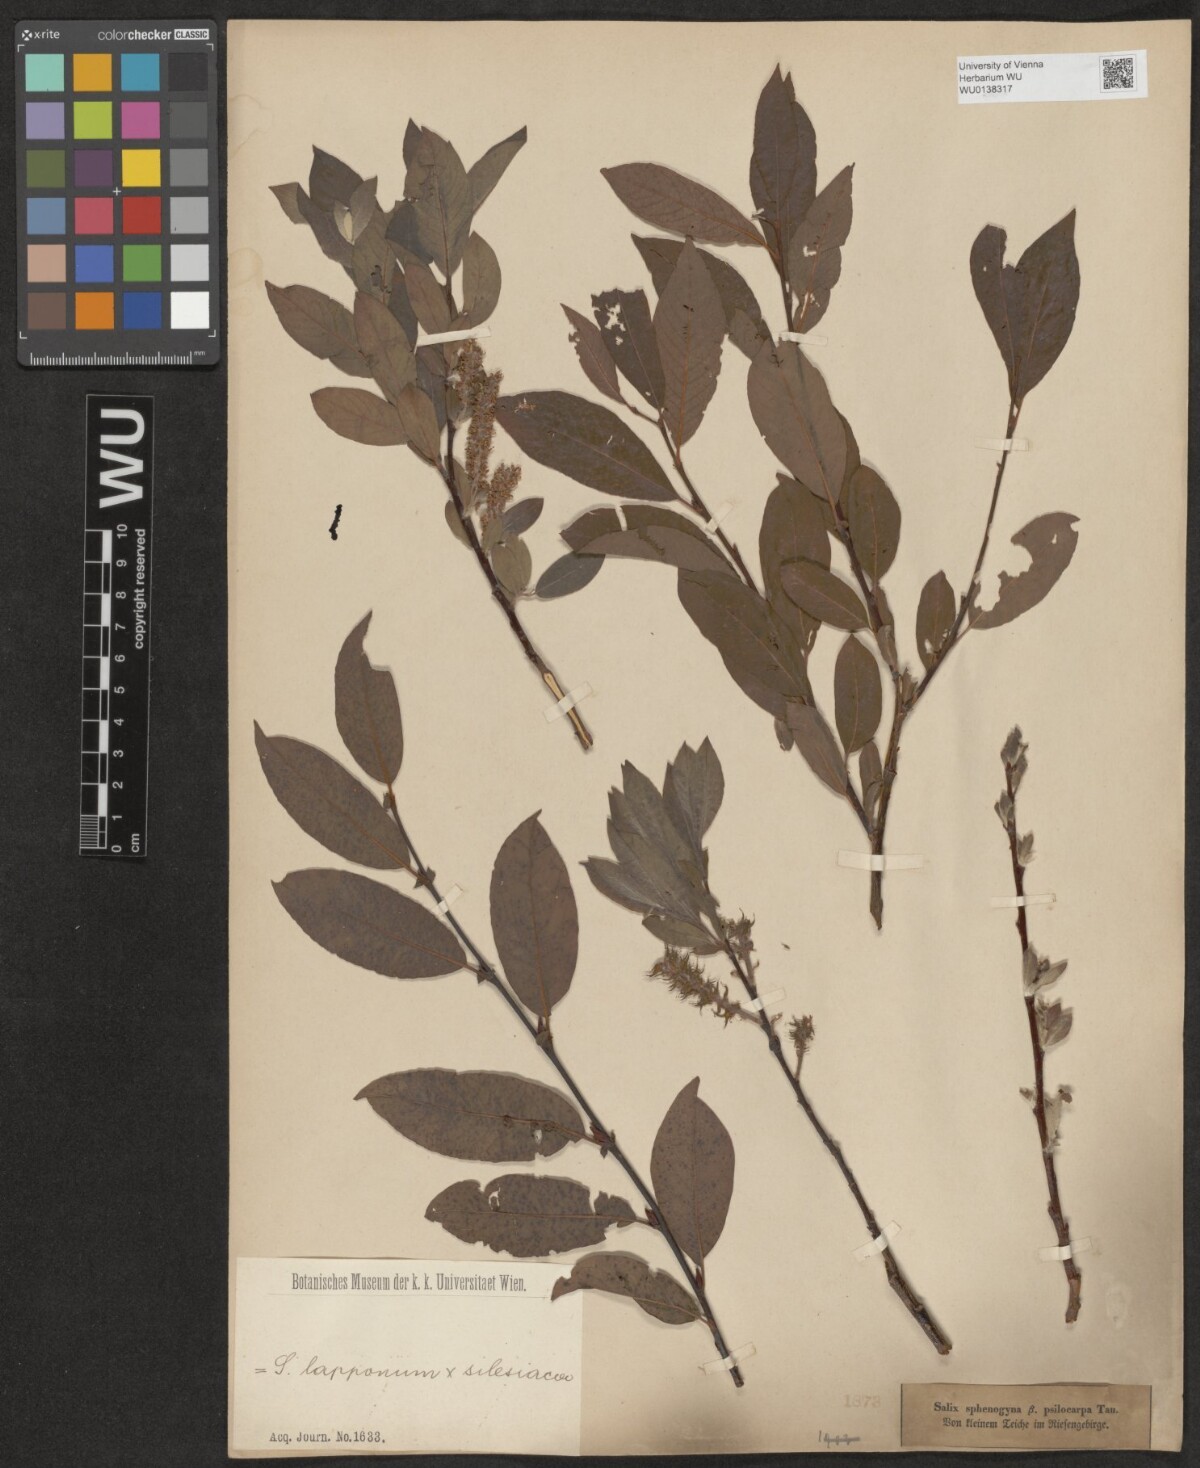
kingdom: Plantae
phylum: Tracheophyta
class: Magnoliopsida
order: Malpighiales
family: Salicaceae
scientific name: Salicaceae
